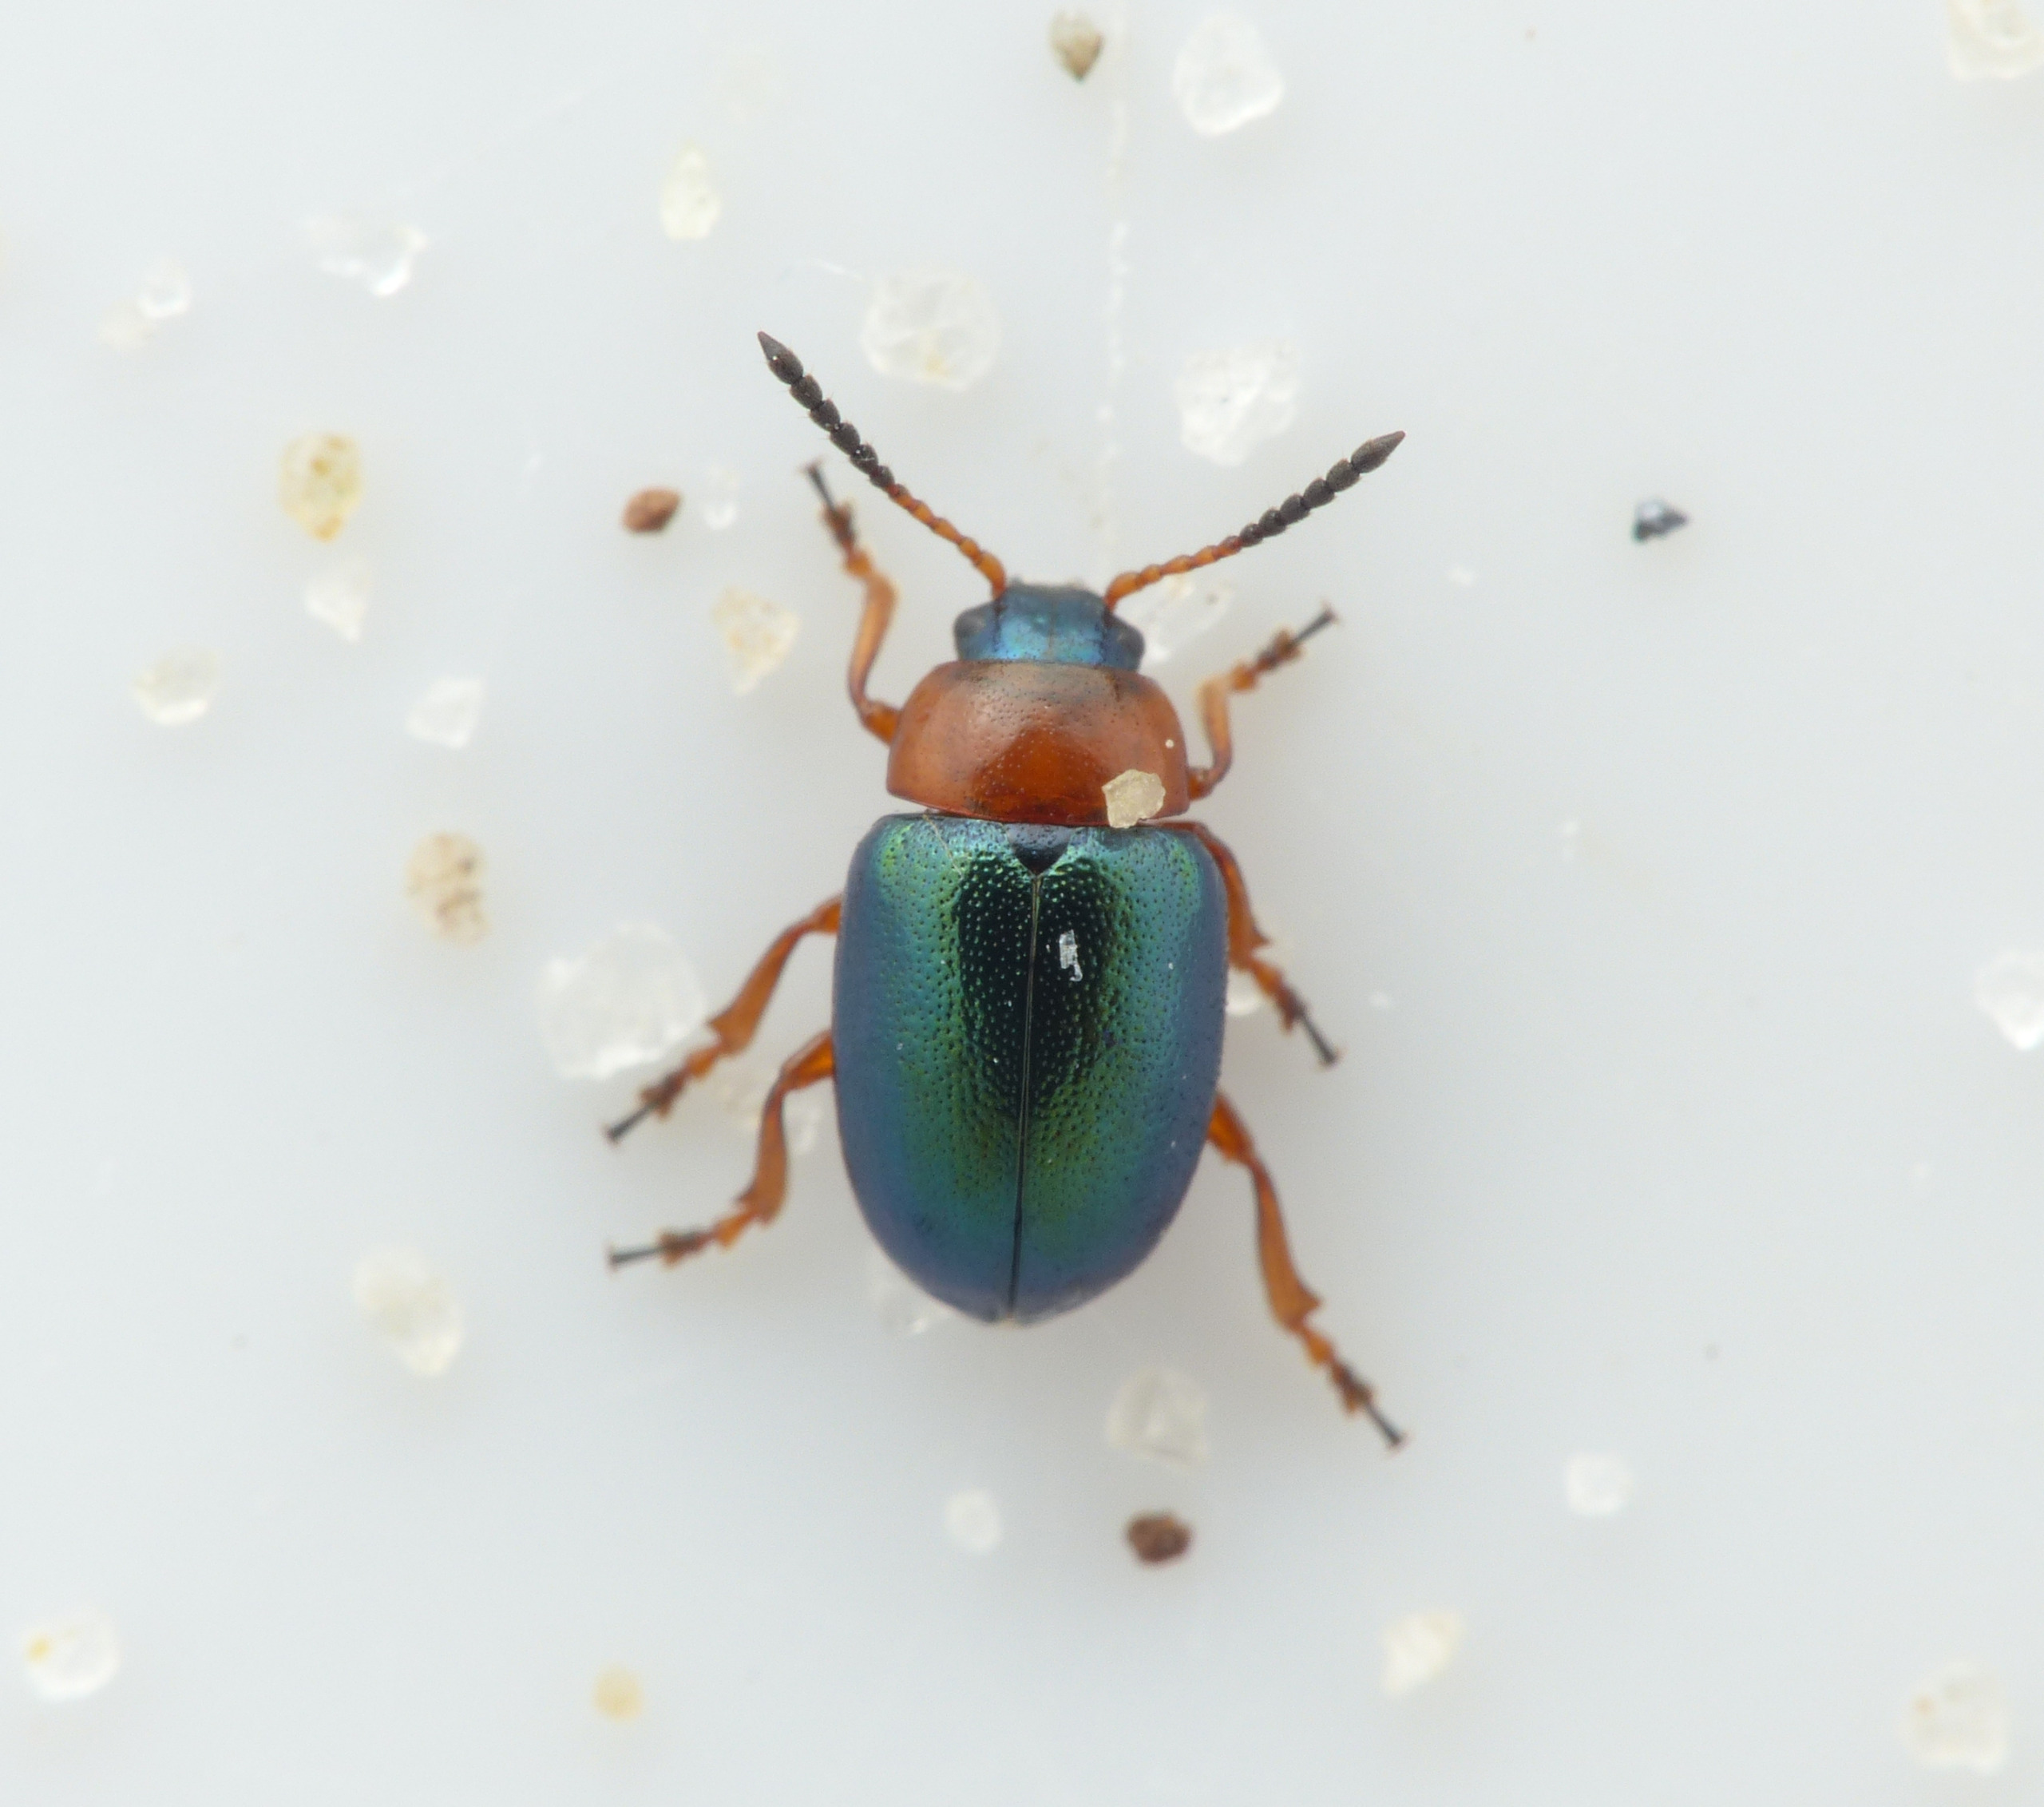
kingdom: Animalia
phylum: Arthropoda
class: Insecta
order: Coleoptera
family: Chrysomelidae
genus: Gastrophysa
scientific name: Gastrophysa polygoni
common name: Pileurtbladbille
